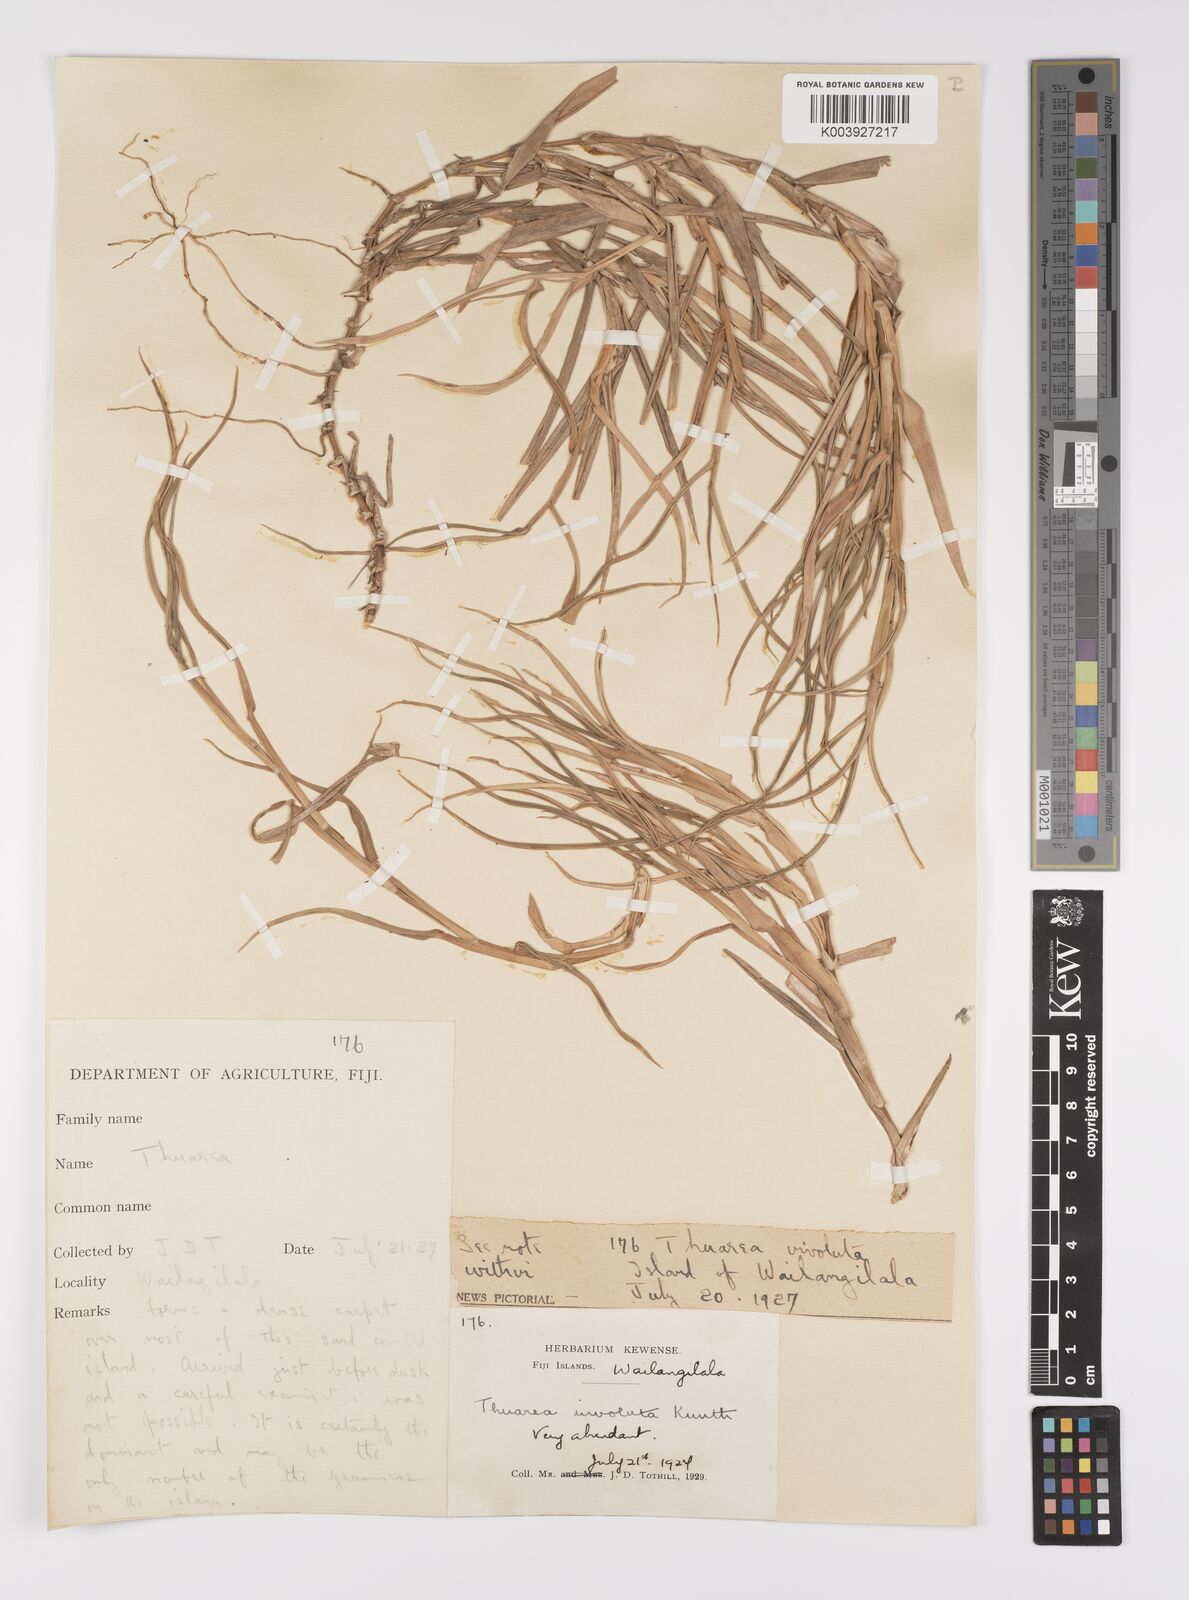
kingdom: Plantae
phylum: Tracheophyta
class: Liliopsida
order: Poales
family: Poaceae
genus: Thuarea
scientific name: Thuarea involuta
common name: Tropical beach grass
